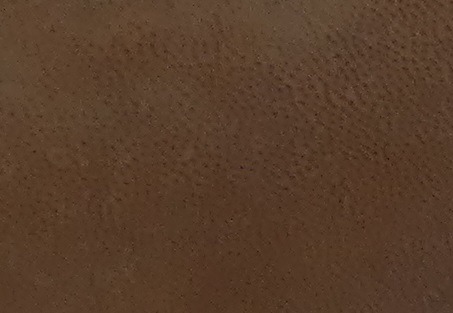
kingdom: Fungi
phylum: Basidiomycota
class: Agaricomycetes
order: Polyporales
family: Fomitopsidaceae
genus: Fomitopsis
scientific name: Fomitopsis pinicola
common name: Randbæltet hovporesvamp
